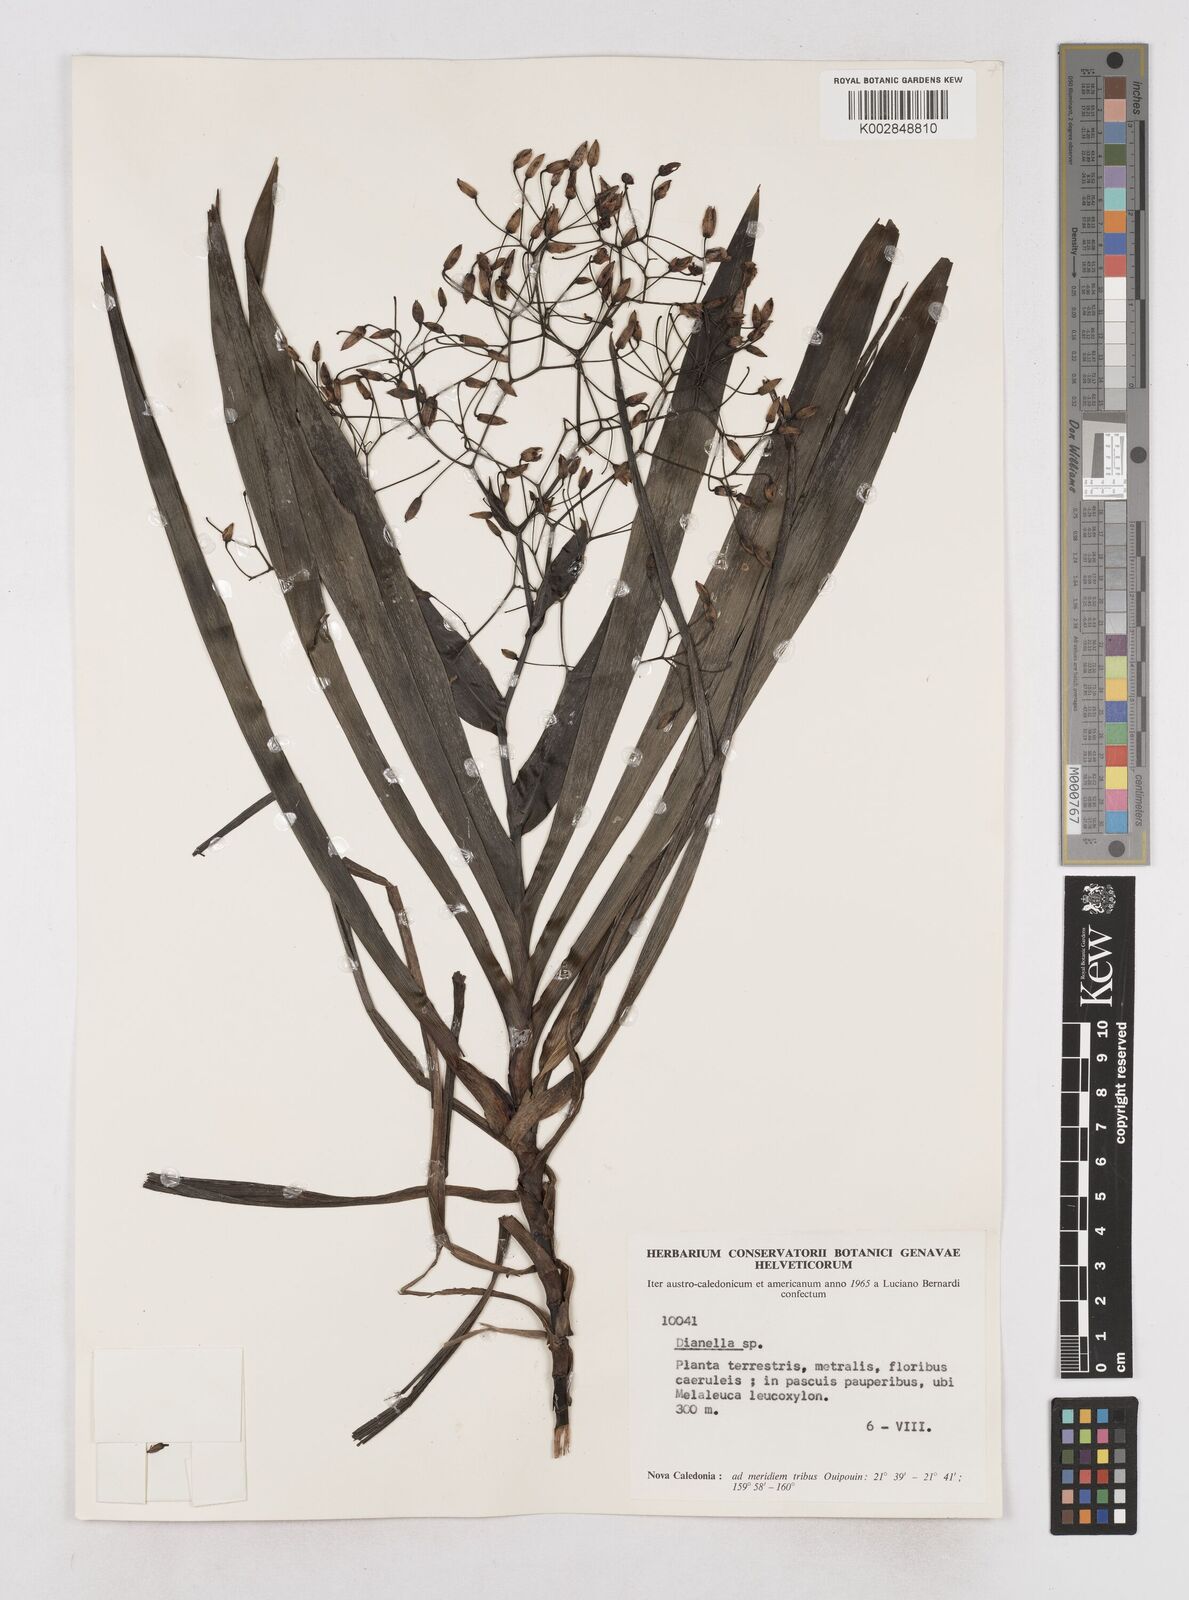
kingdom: Plantae
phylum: Tracheophyta
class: Liliopsida
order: Asparagales
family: Asphodelaceae
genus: Rhuacophila
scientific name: Rhuacophila javanica
